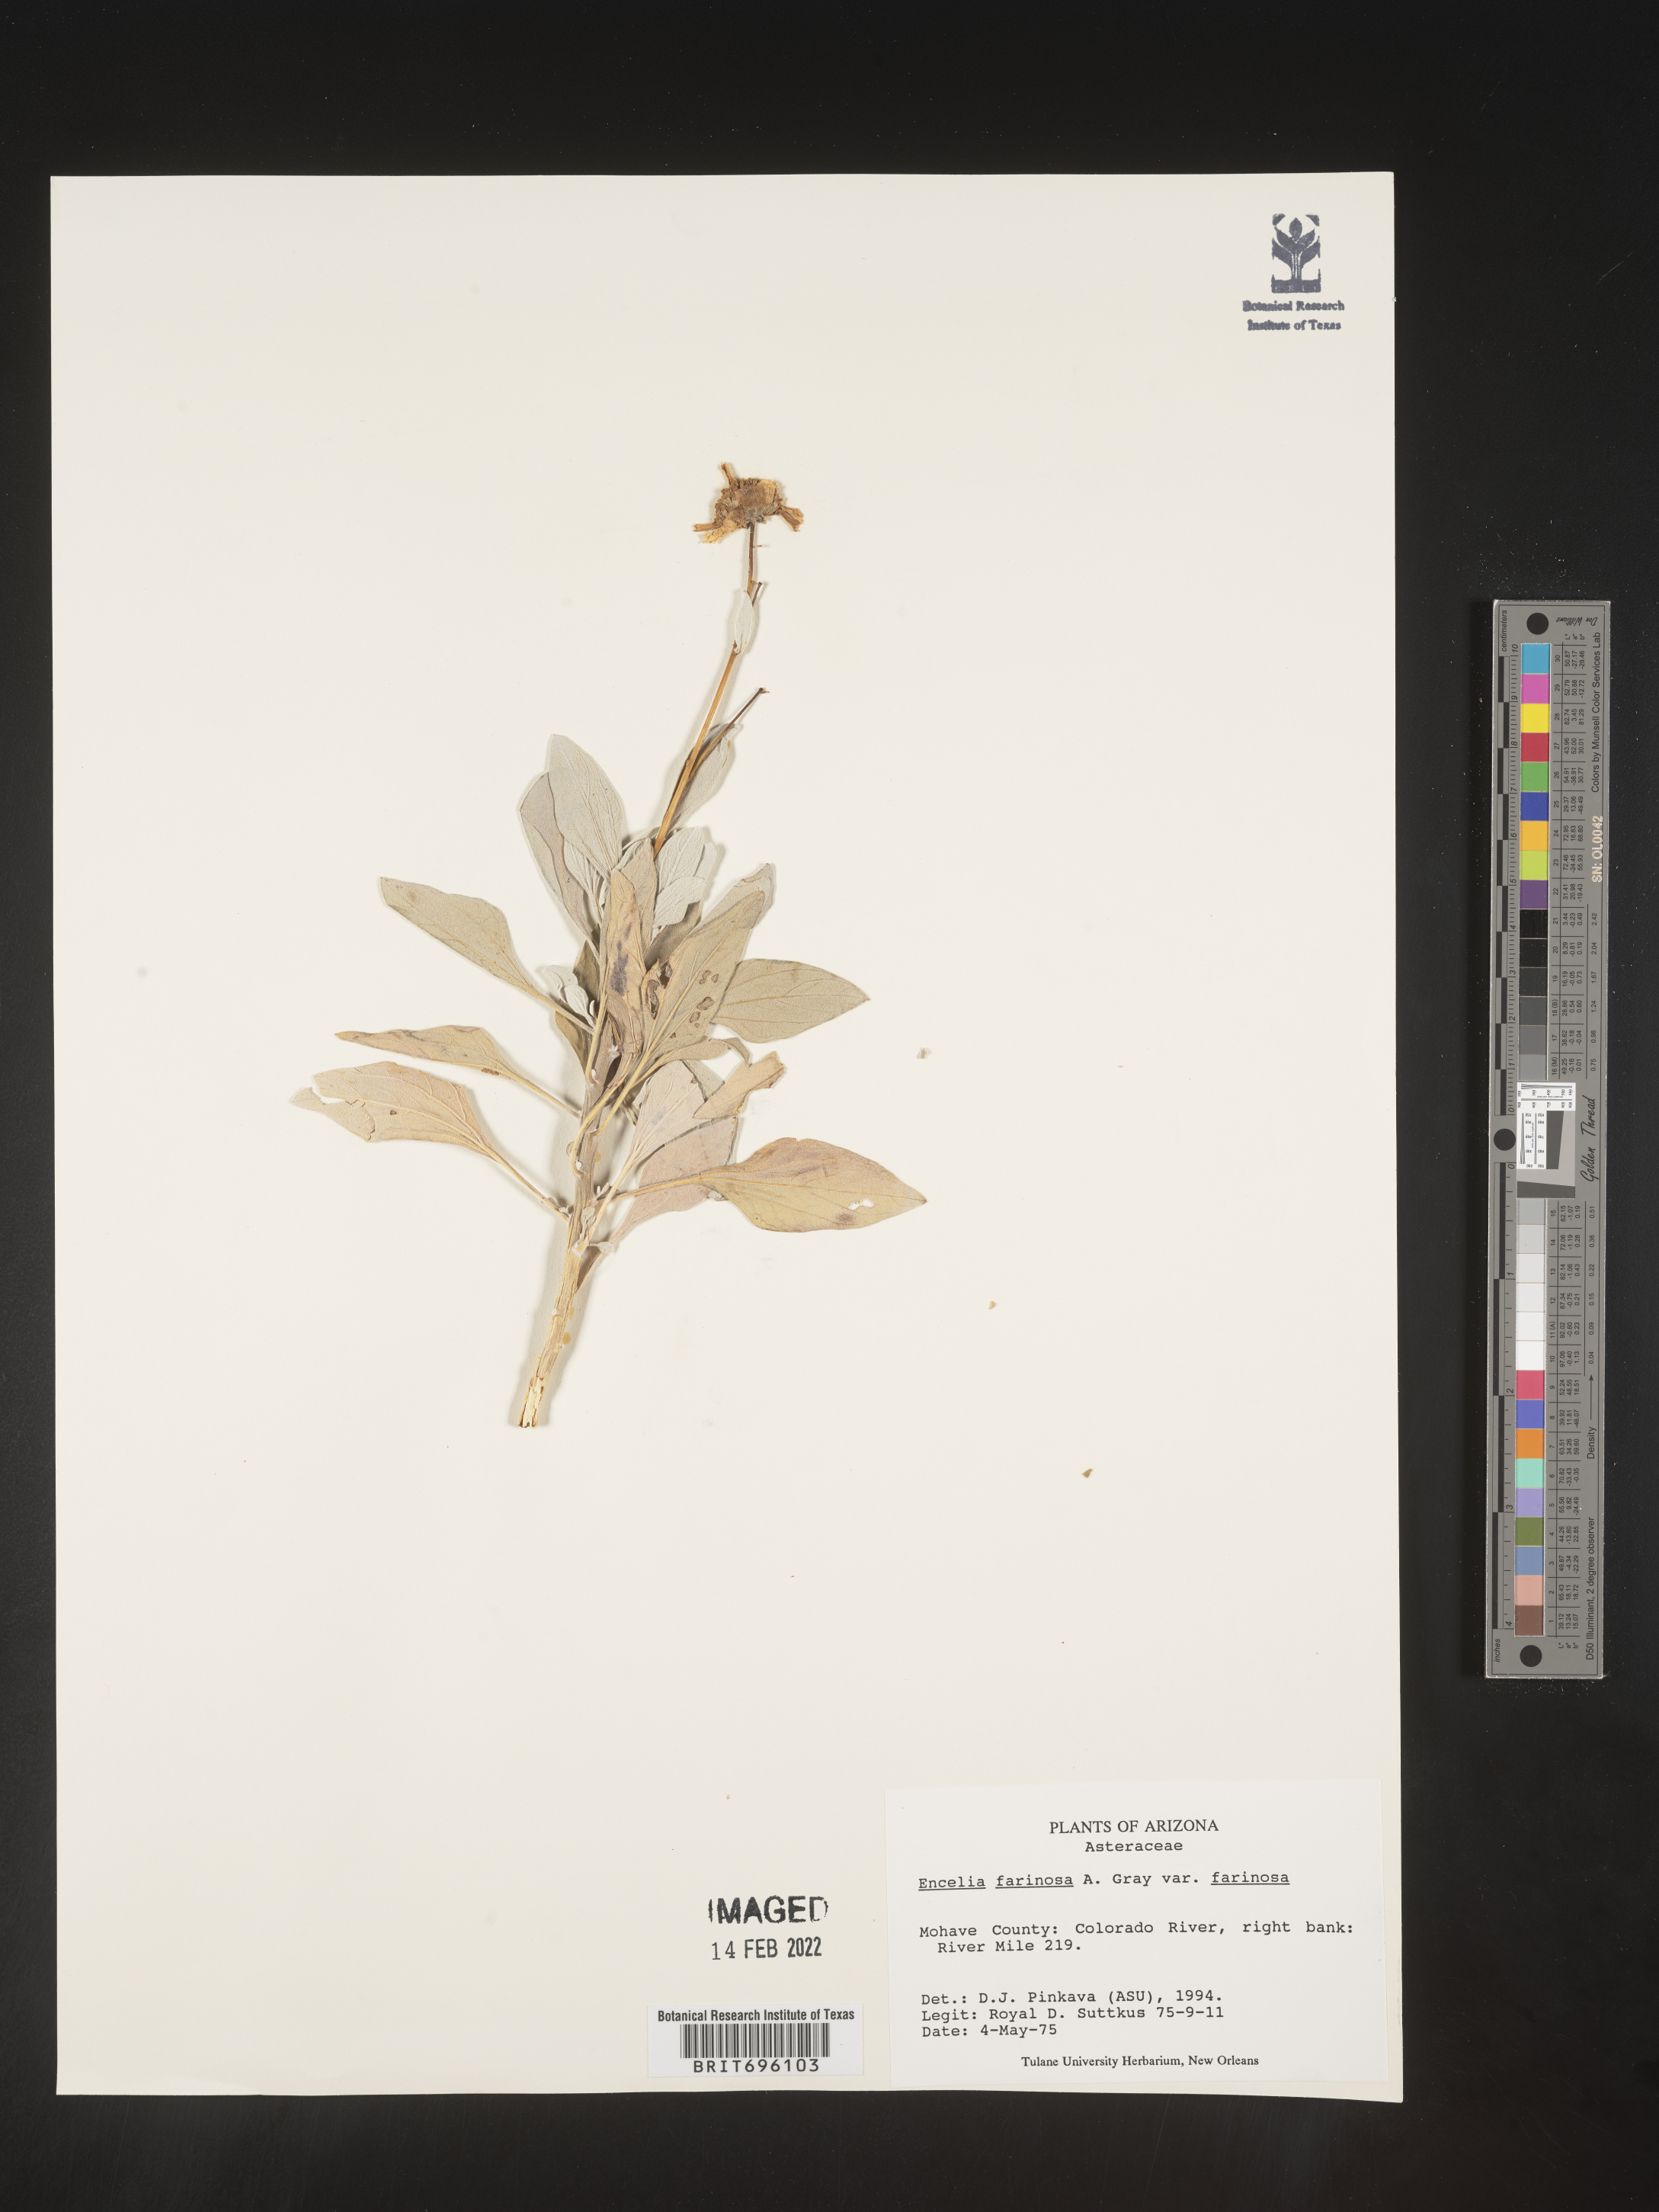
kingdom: Plantae
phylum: Tracheophyta
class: Magnoliopsida
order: Asterales
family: Asteraceae
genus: Encelia
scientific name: Encelia farinosa
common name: Brittlebush
